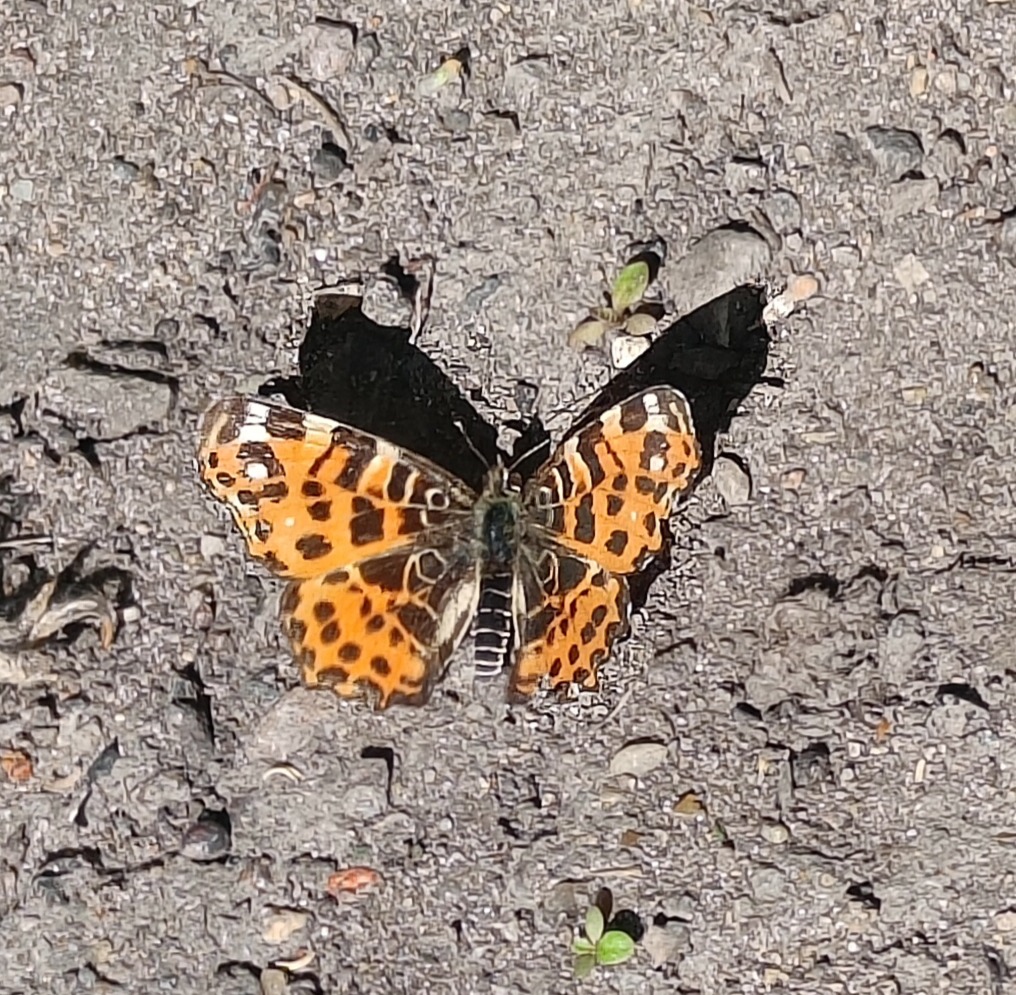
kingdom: Animalia
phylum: Arthropoda
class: Insecta
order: Lepidoptera
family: Nymphalidae
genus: Araschnia
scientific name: Araschnia levana
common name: Nældesommerfugl
